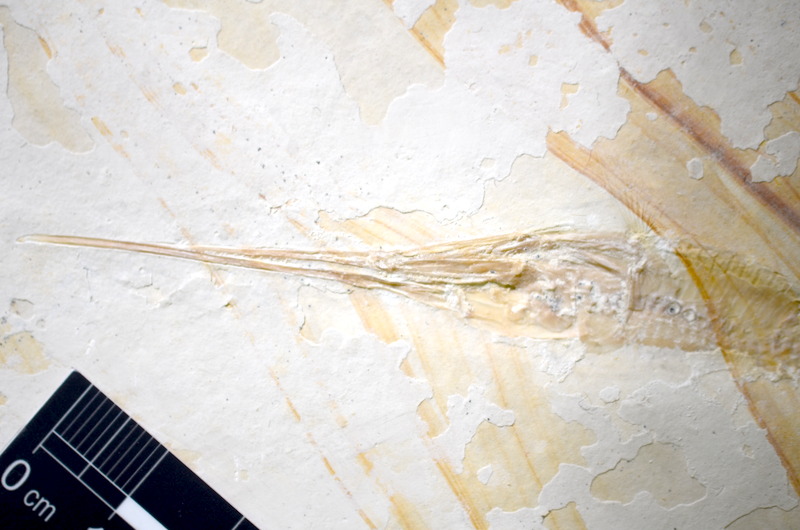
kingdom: Animalia
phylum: Chordata
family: Aspidorhynchidae
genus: Belonostomus
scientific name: Belonostomus tenuirostris
